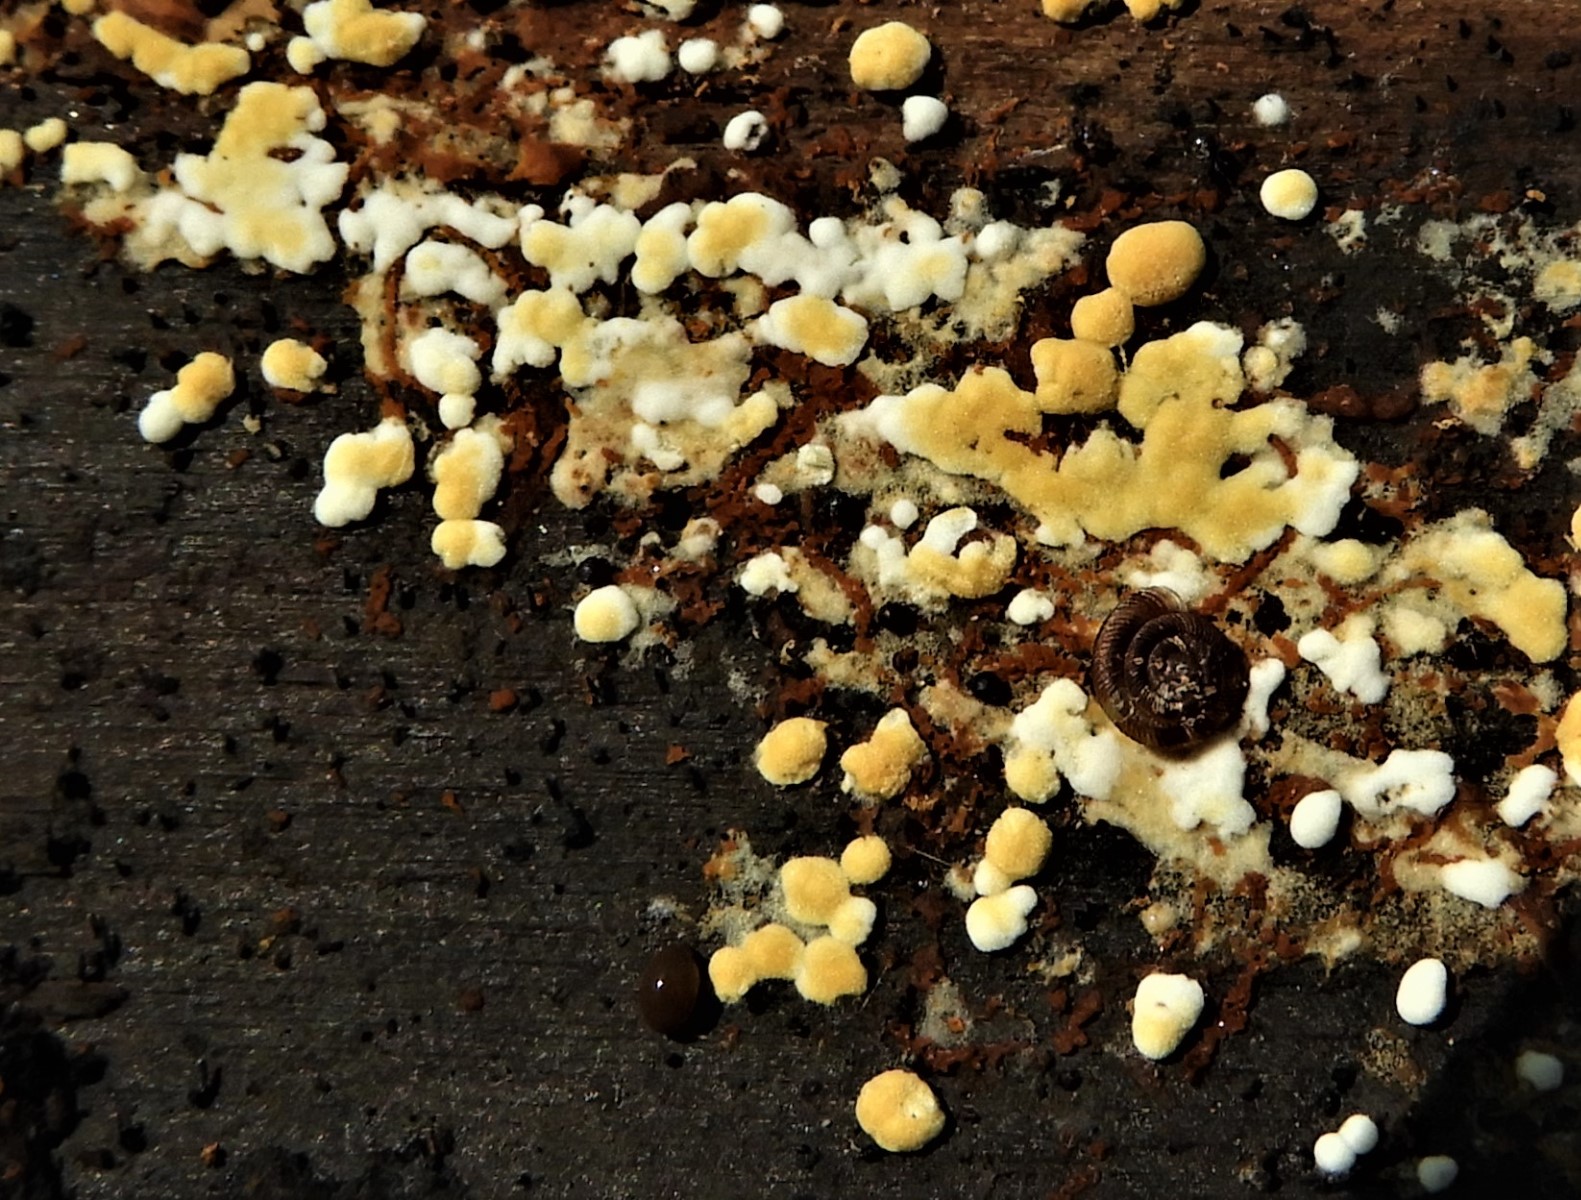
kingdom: Fungi
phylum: Basidiomycota
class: Agaricomycetes
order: Cantharellales
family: Botryobasidiaceae
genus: Botryobasidium
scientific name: Botryobasidium aureum
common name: gylden spindhinde
